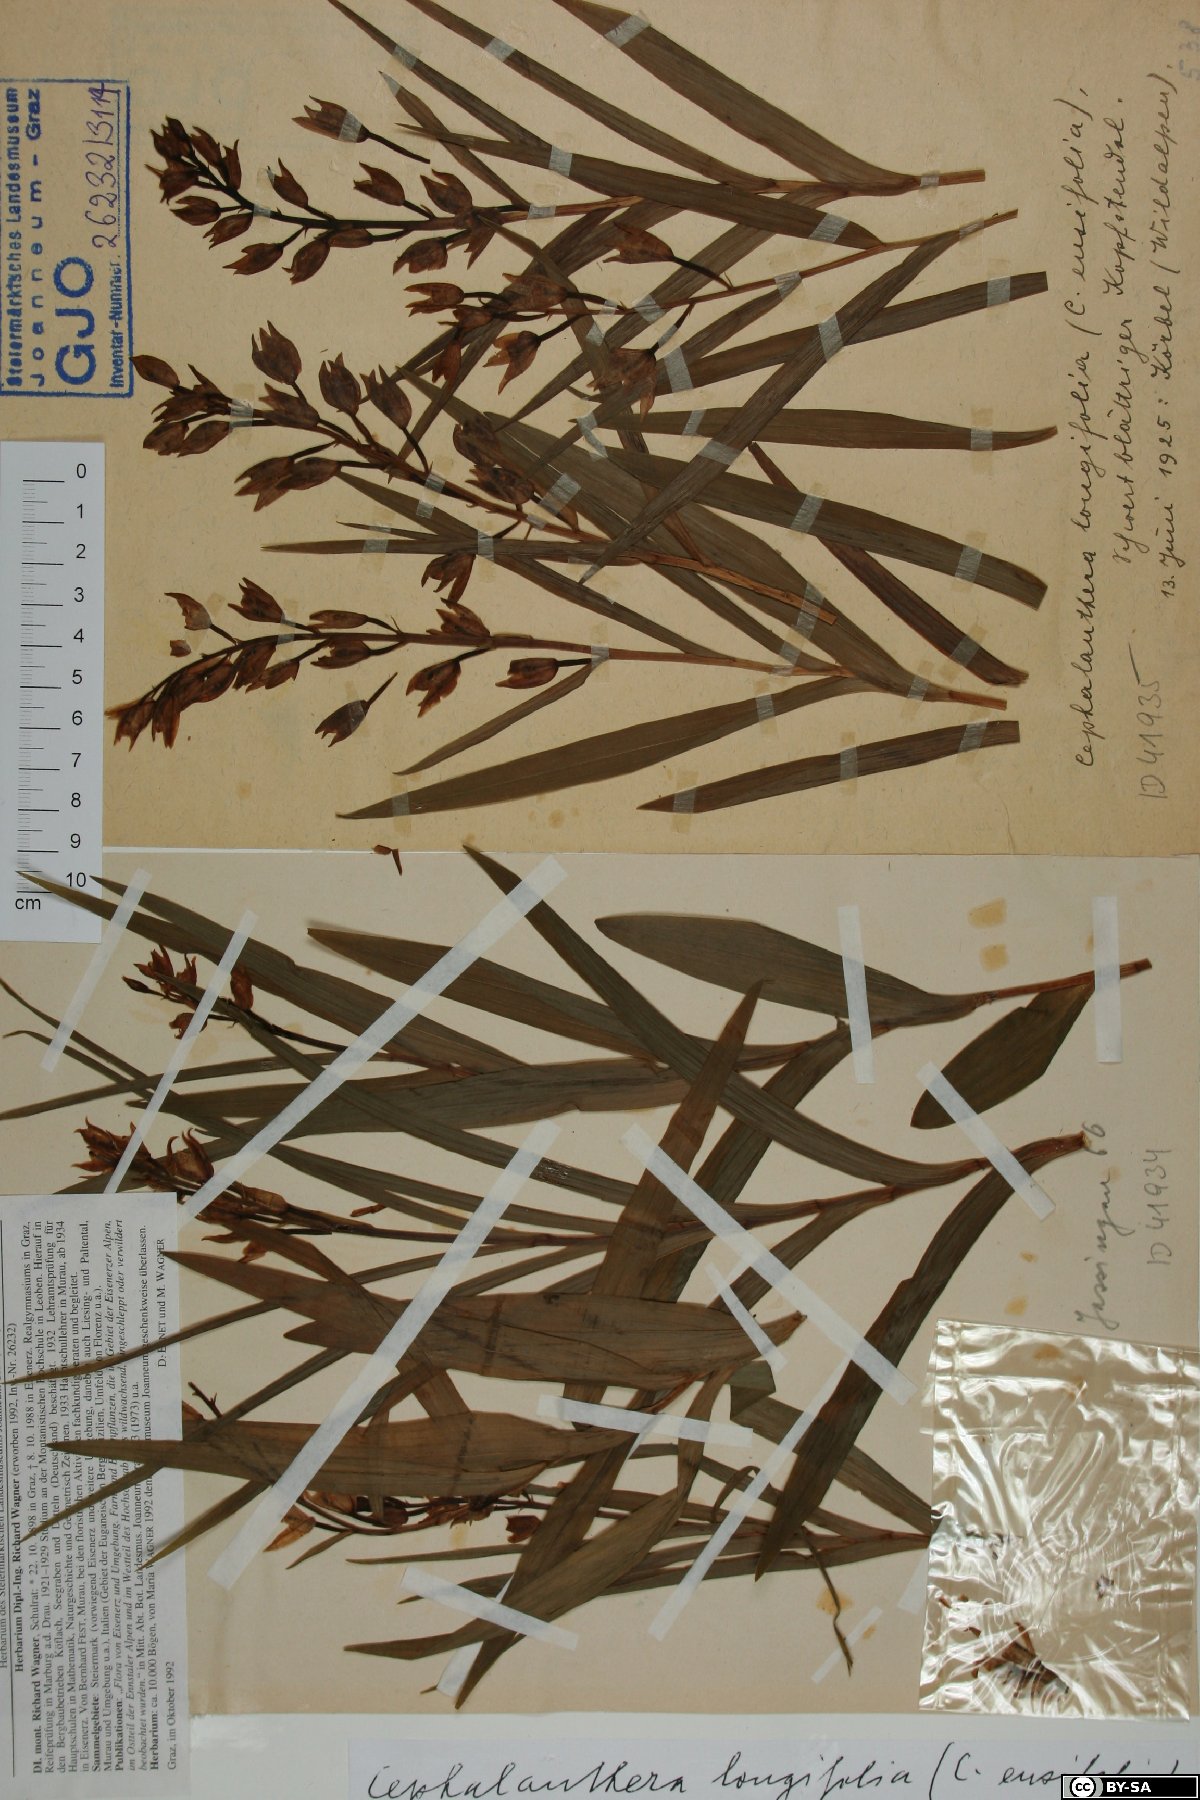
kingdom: Plantae
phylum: Tracheophyta
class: Liliopsida
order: Asparagales
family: Orchidaceae
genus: Cephalanthera
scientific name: Cephalanthera longifolia
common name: Narrow-leaved helleborine
